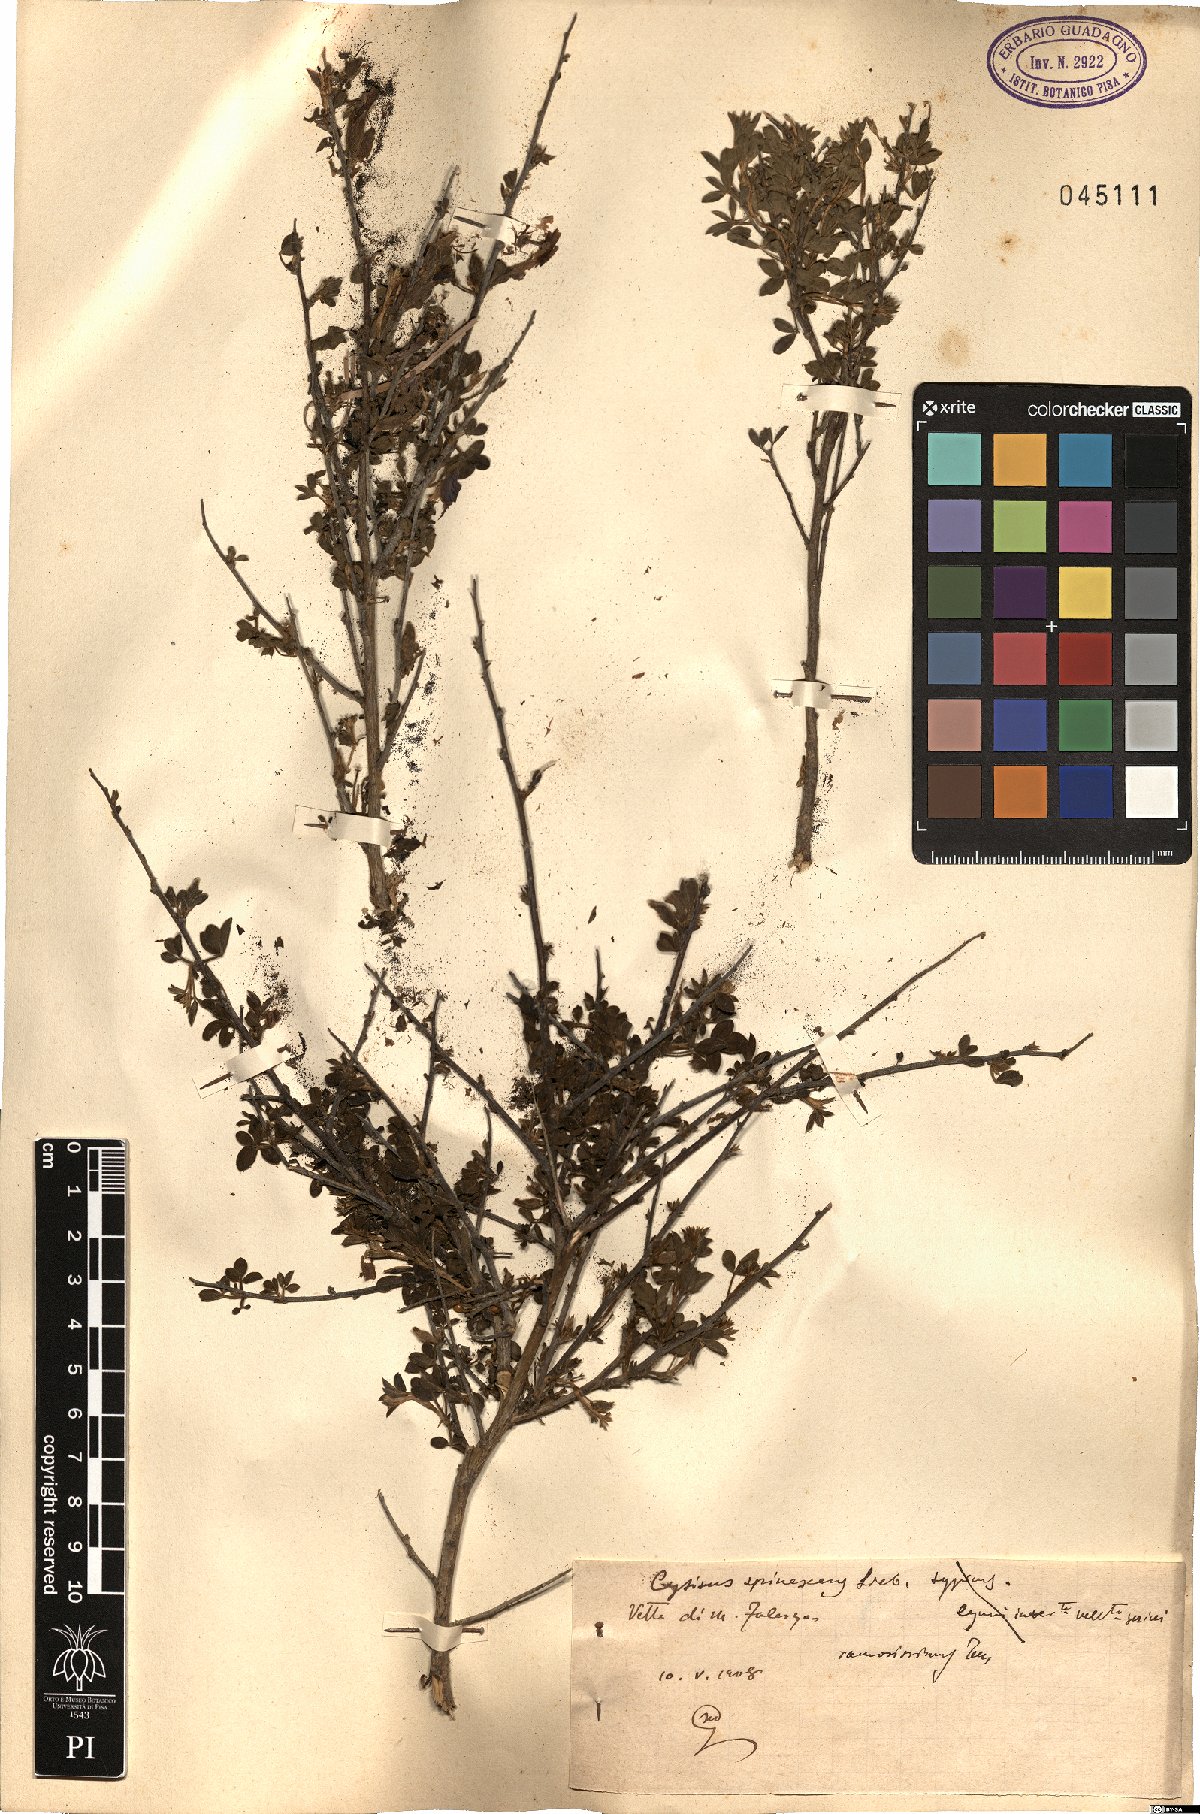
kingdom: Plantae
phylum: Tracheophyta
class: Magnoliopsida
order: Fabales
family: Fabaceae
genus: Chamaecytisus
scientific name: Chamaecytisus spinescens
